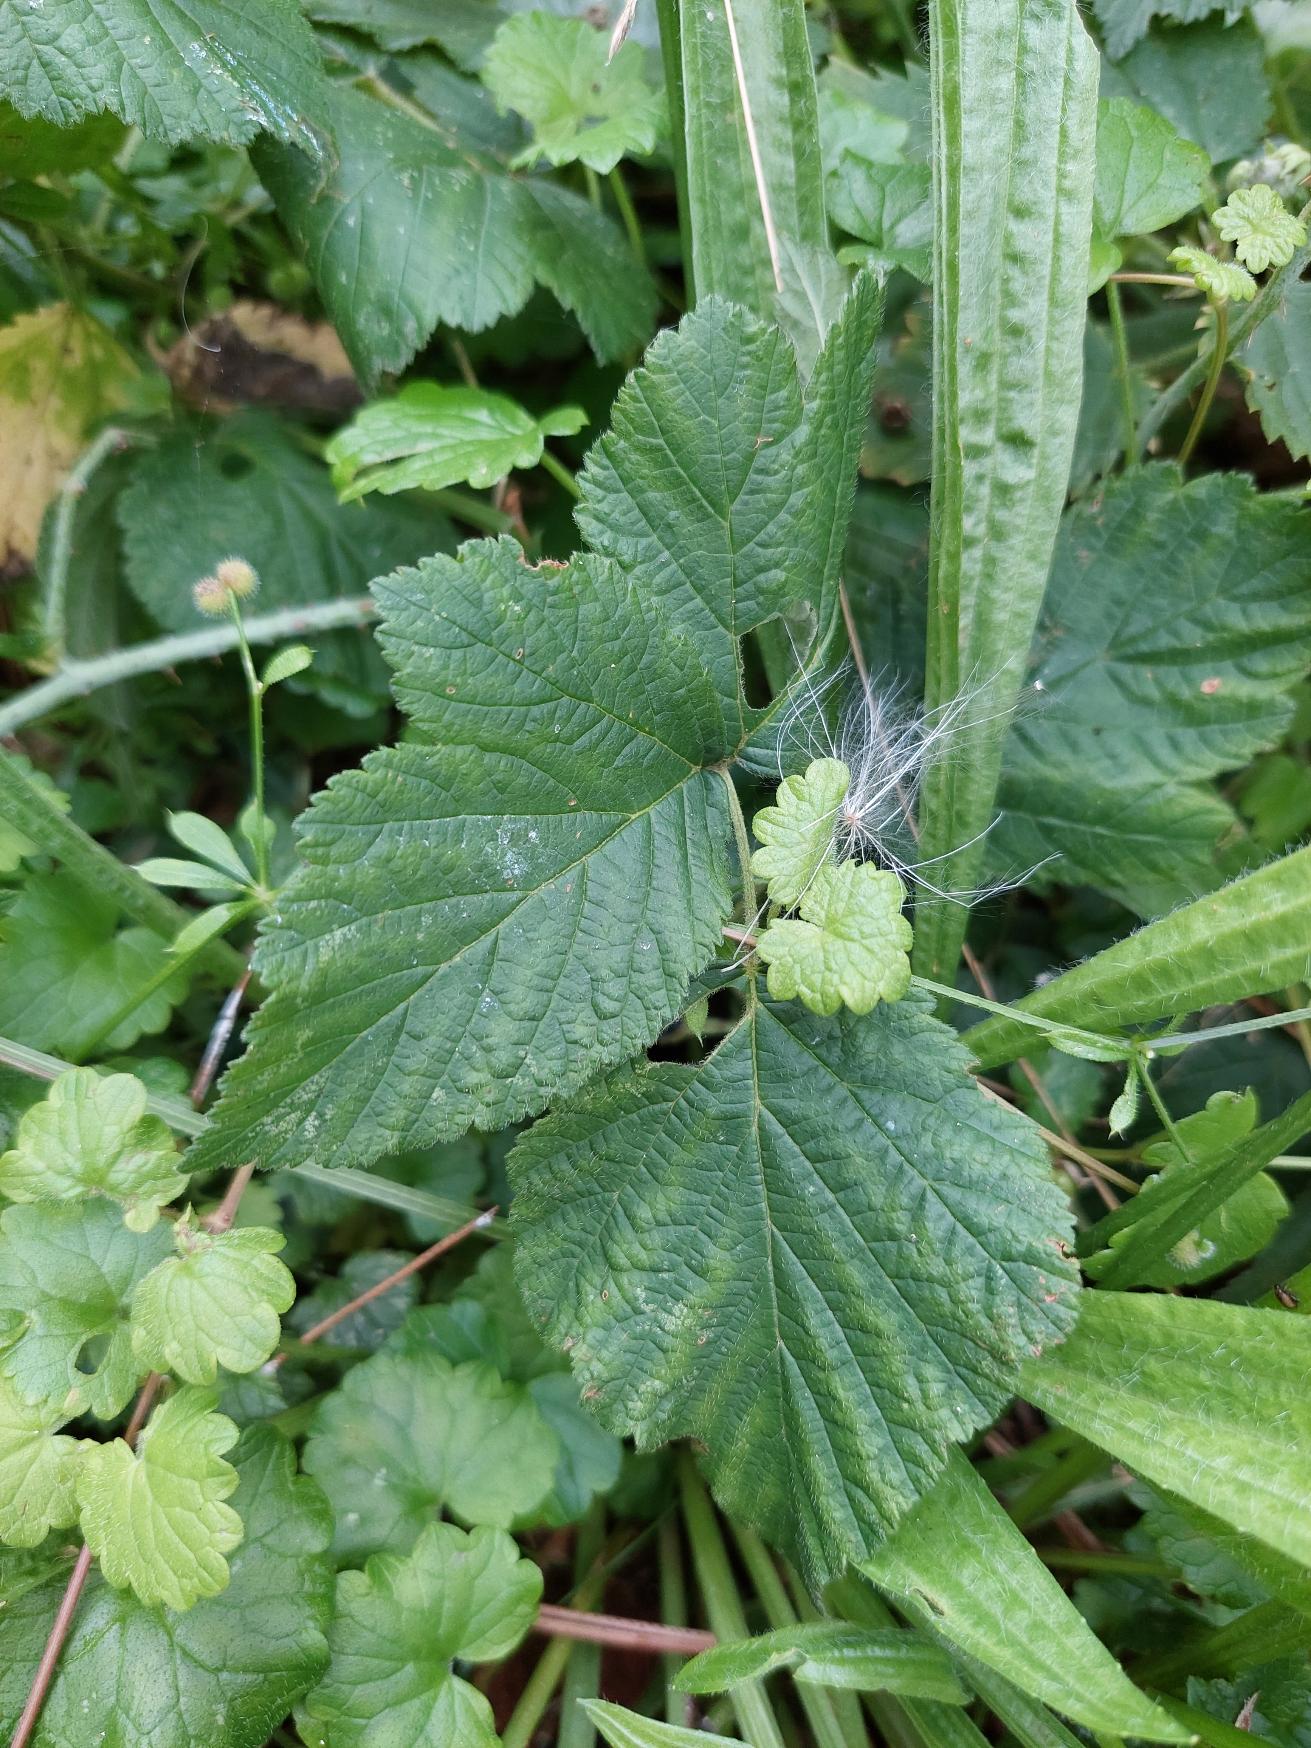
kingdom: Plantae
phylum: Tracheophyta
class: Magnoliopsida
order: Rosales
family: Rosaceae
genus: Rubus
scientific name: Rubus caesius
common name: Korbær
